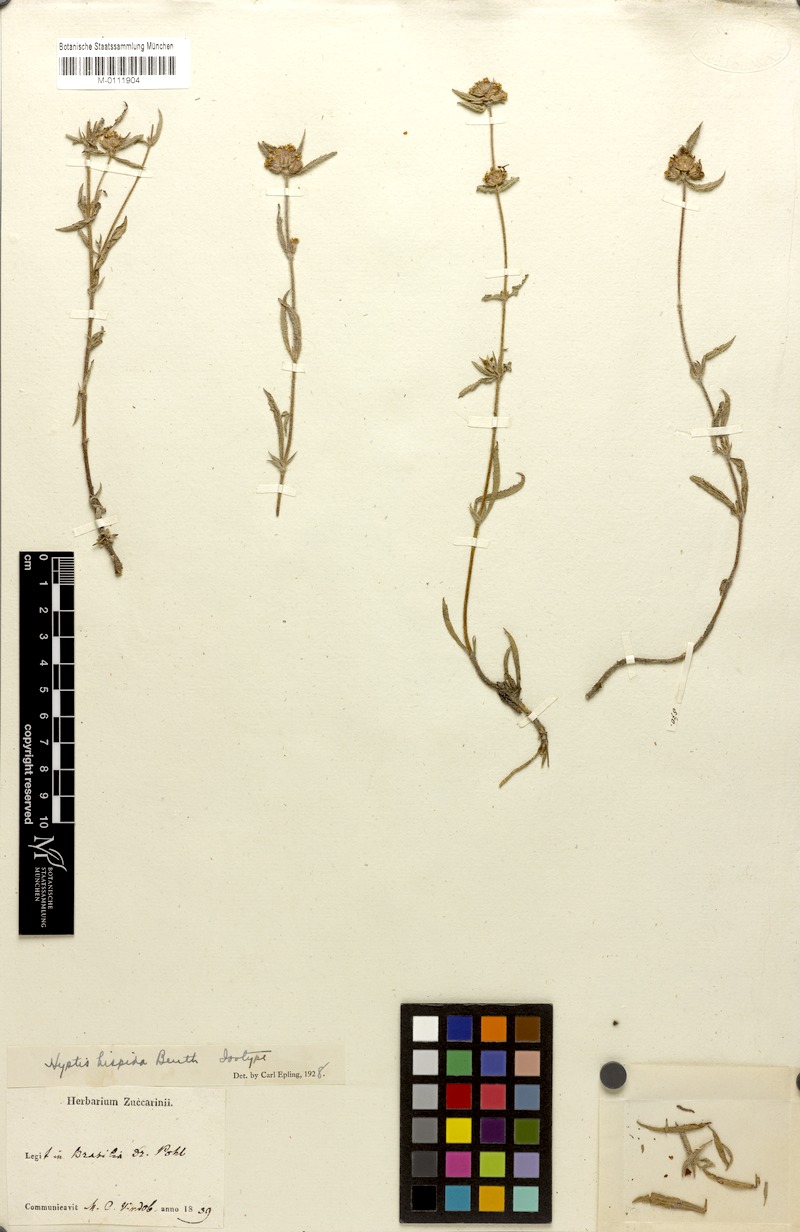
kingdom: Plantae
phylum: Tracheophyta
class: Magnoliopsida
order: Lamiales
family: Lamiaceae
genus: Hyptis
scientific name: Hyptis hispida
